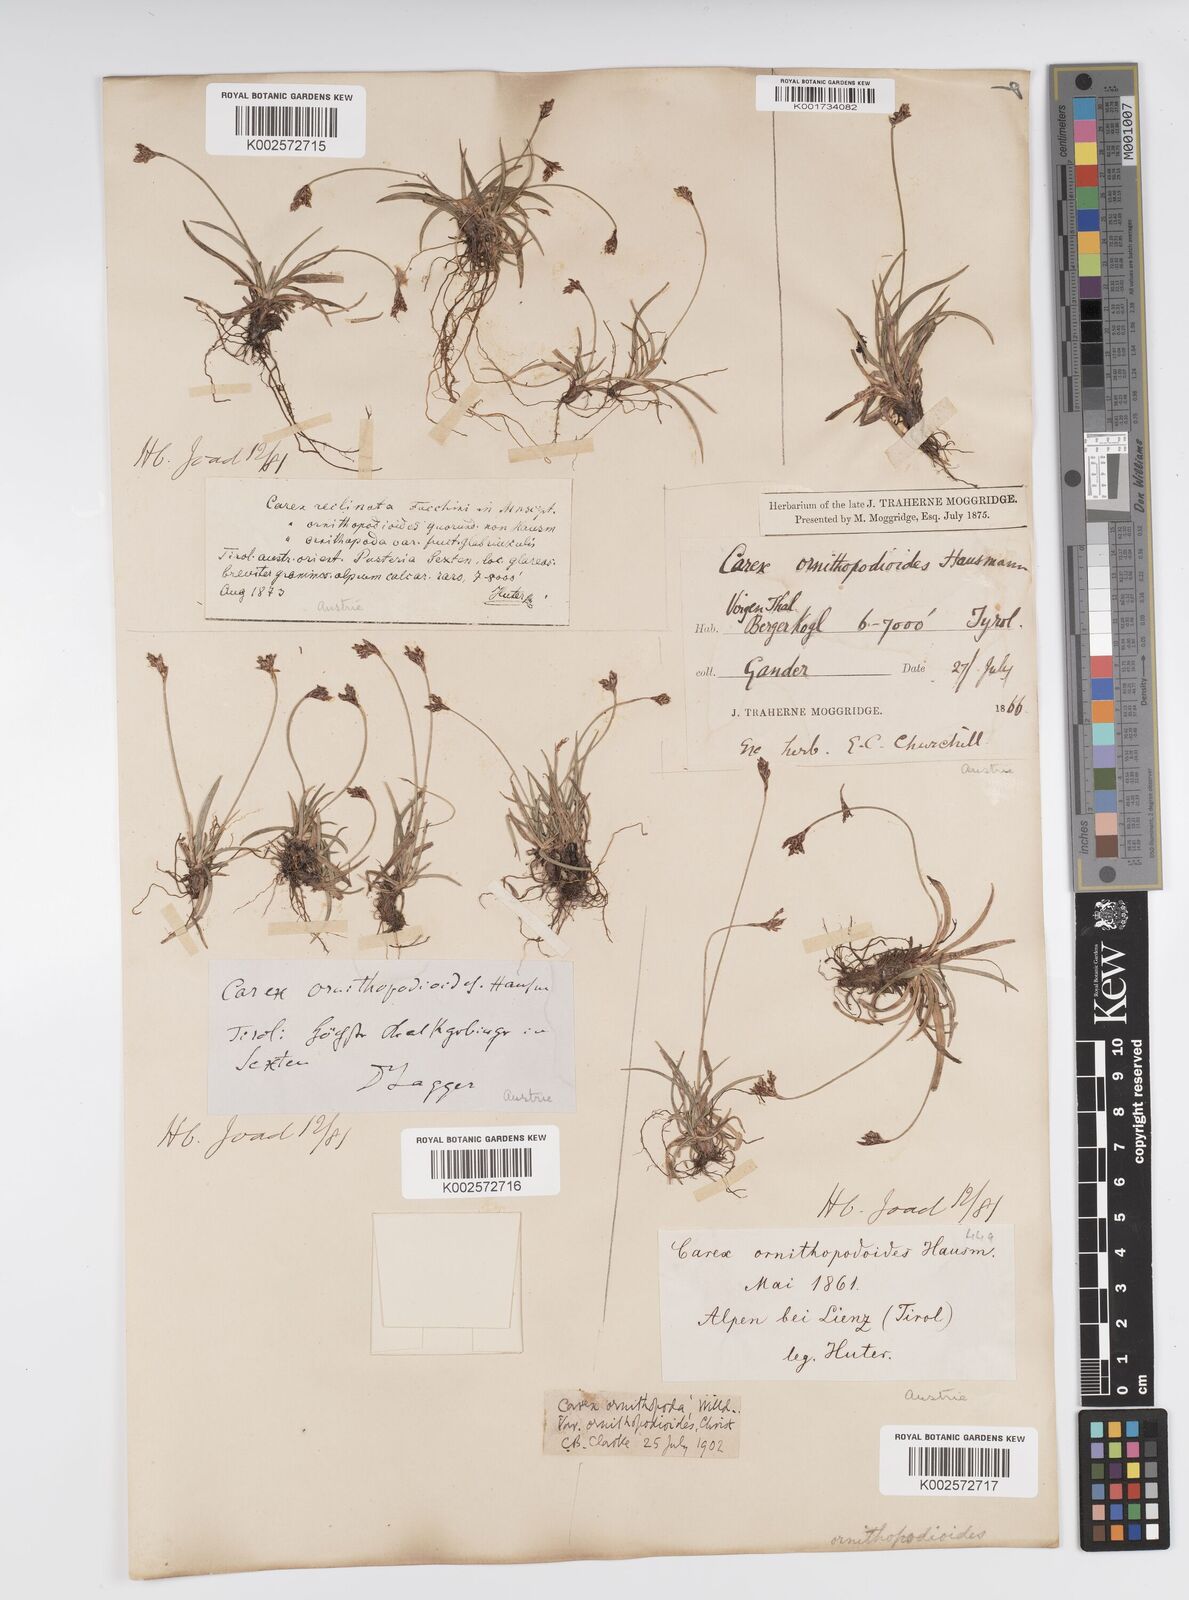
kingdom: Plantae
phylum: Tracheophyta
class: Liliopsida
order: Poales
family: Cyperaceae
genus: Carex
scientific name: Carex ornithopoda
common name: Bird's-foot sedge
